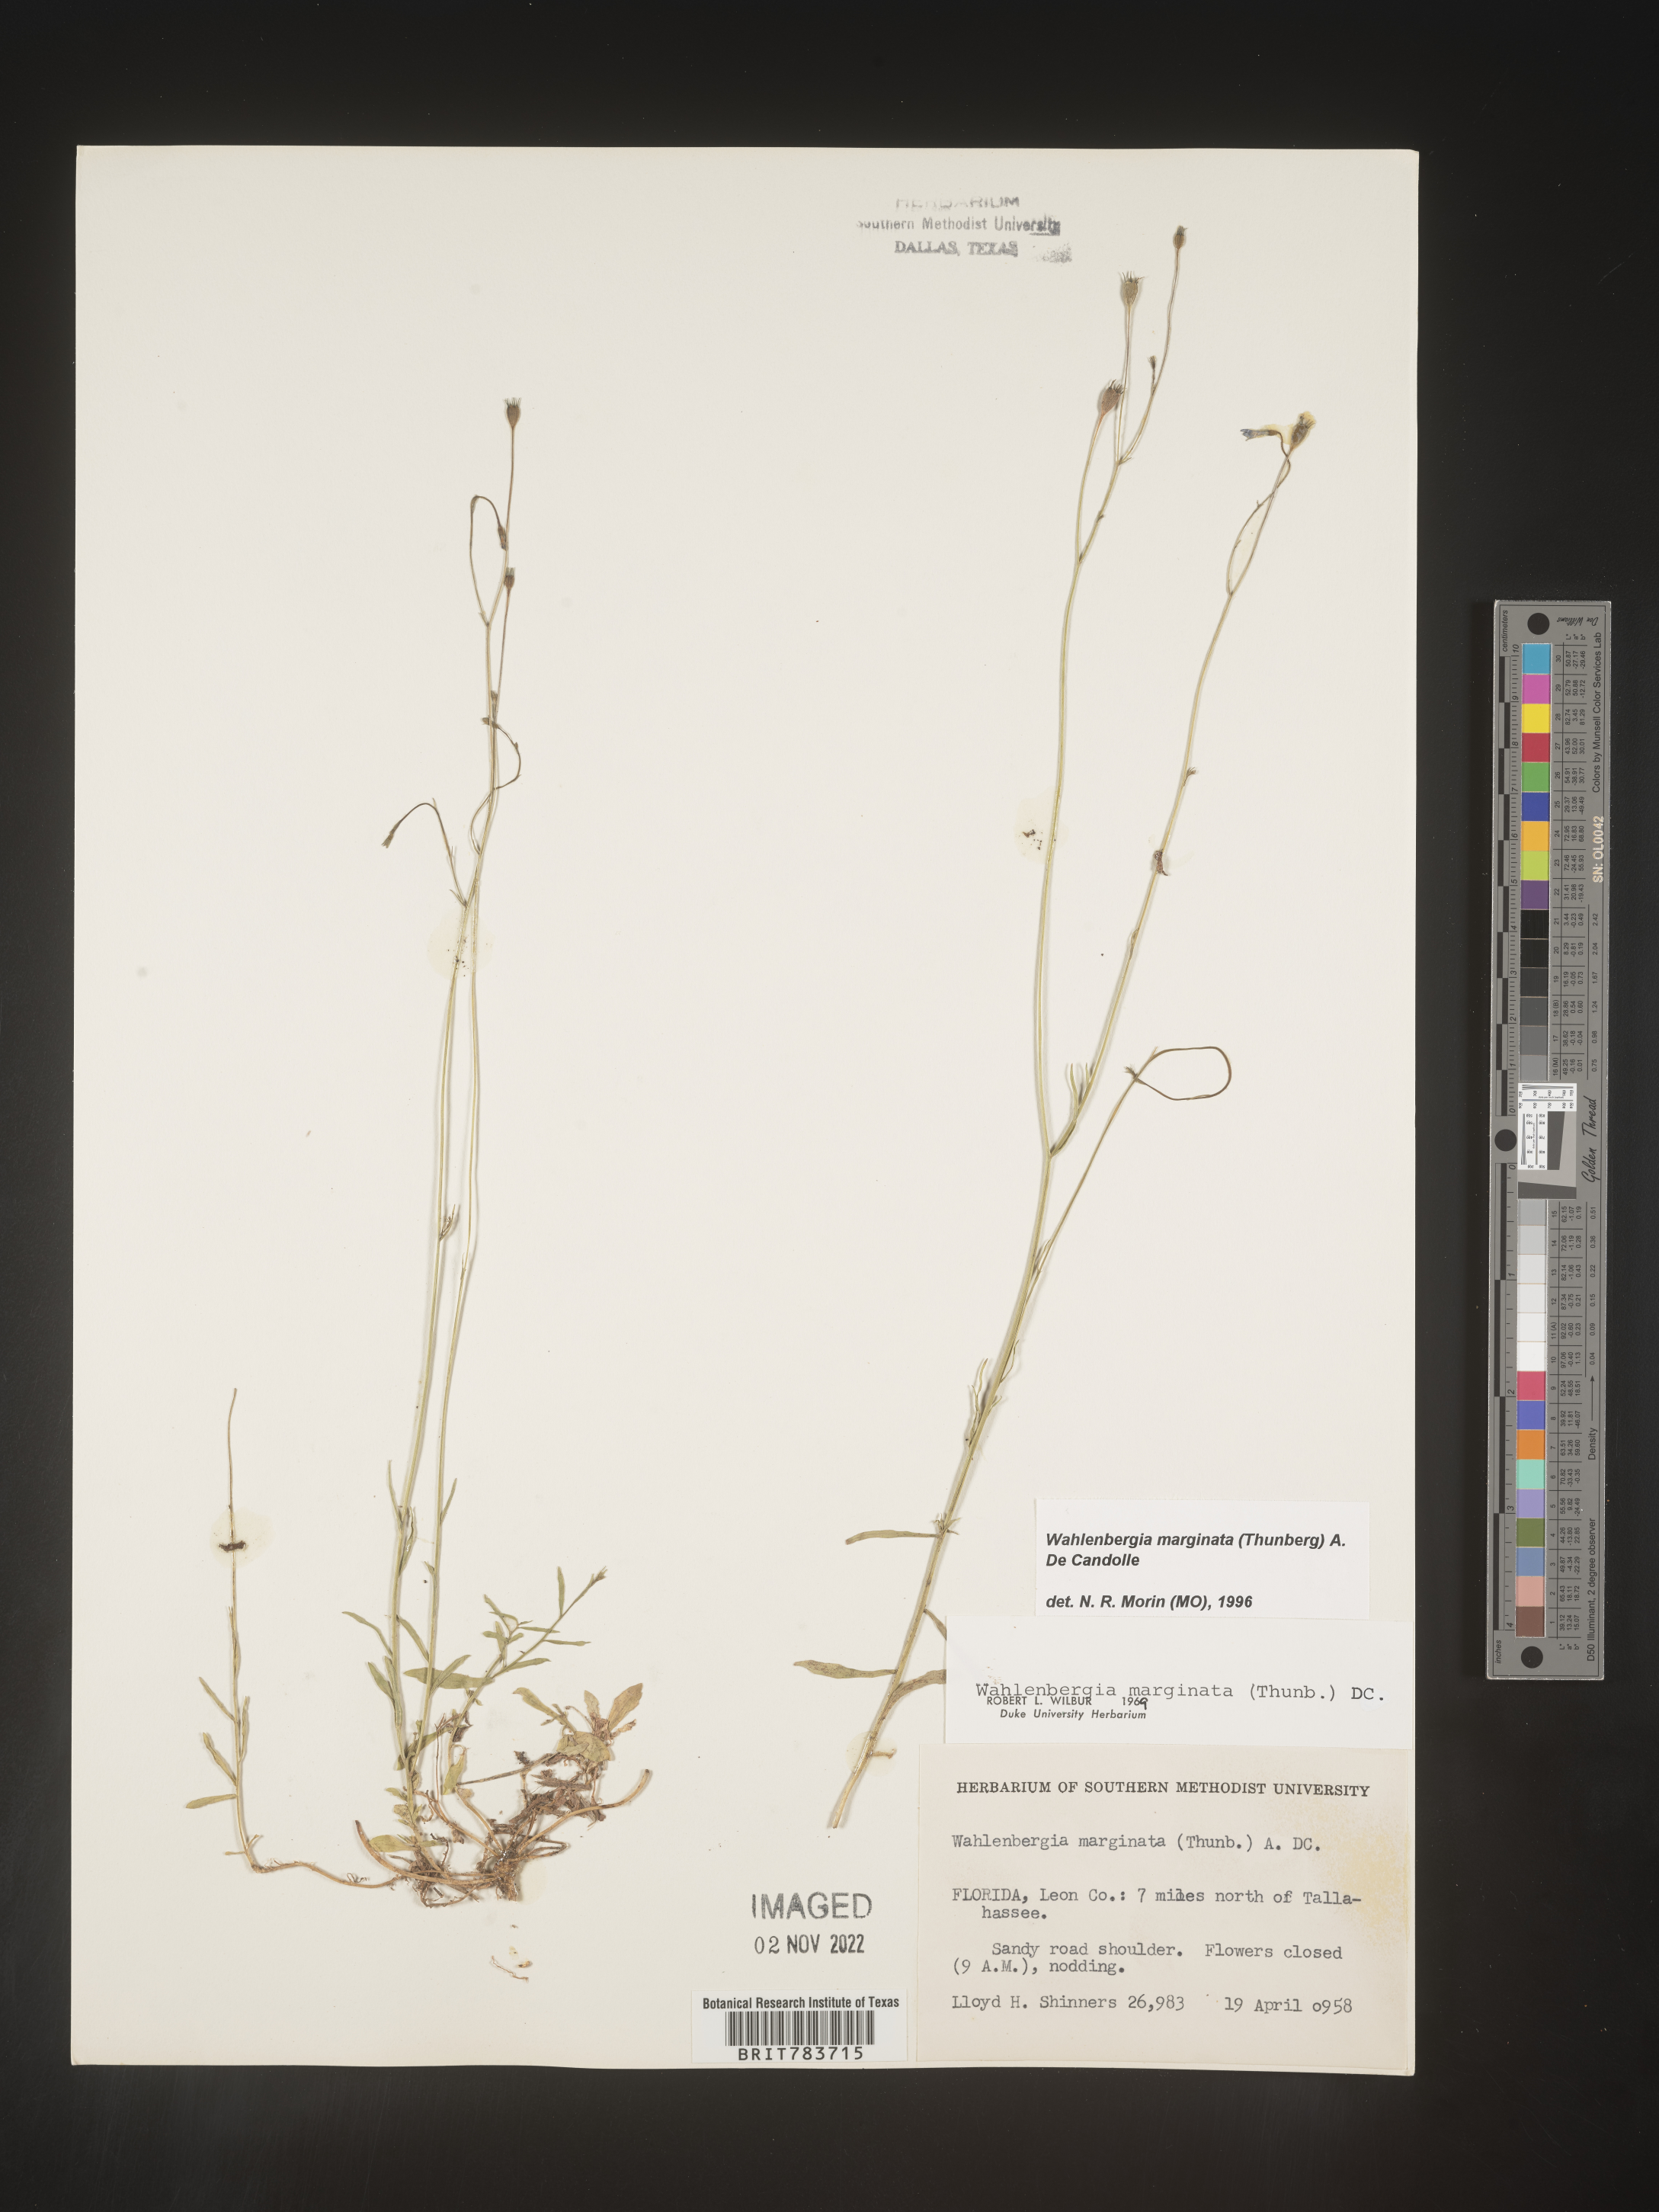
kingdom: Plantae
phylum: Tracheophyta
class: Magnoliopsida
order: Asterales
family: Campanulaceae
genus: Wahlenbergia
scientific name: Wahlenbergia marginata
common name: Southern rockbell
